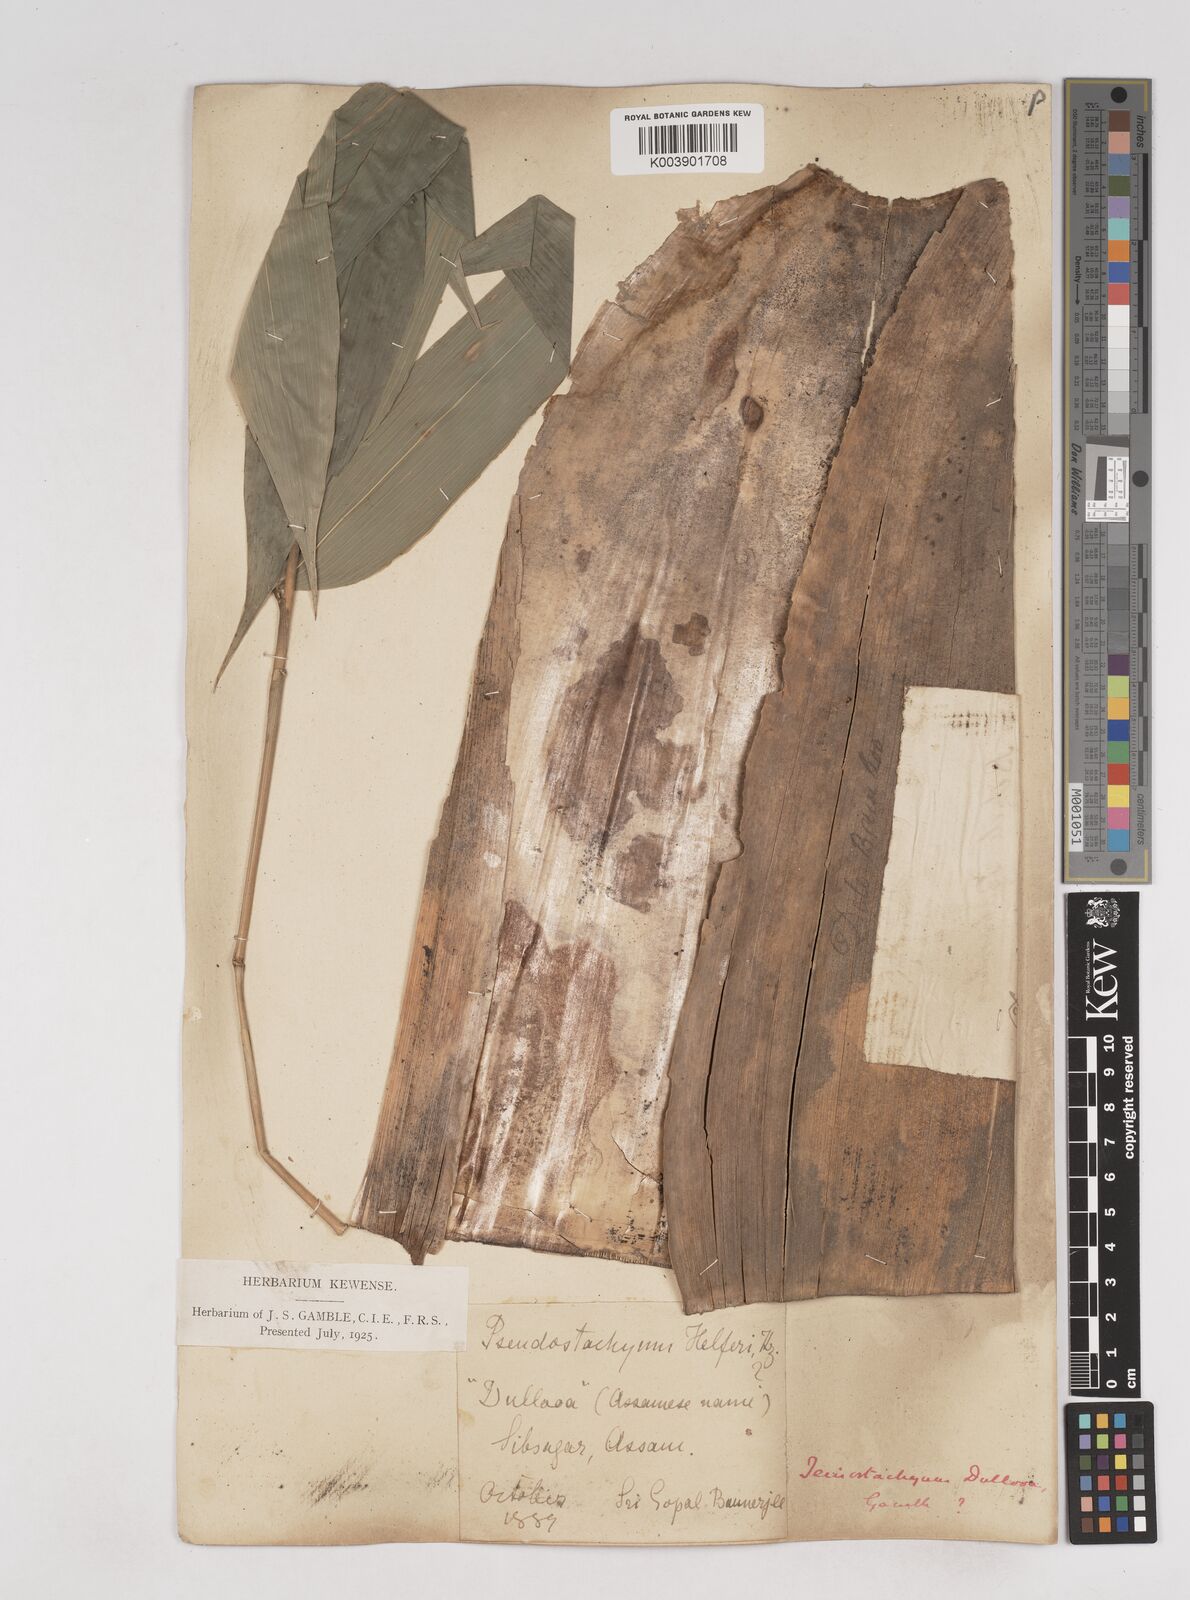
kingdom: Plantae
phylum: Tracheophyta
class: Liliopsida
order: Poales
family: Poaceae
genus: Schizostachyum
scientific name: Schizostachyum dullooa
